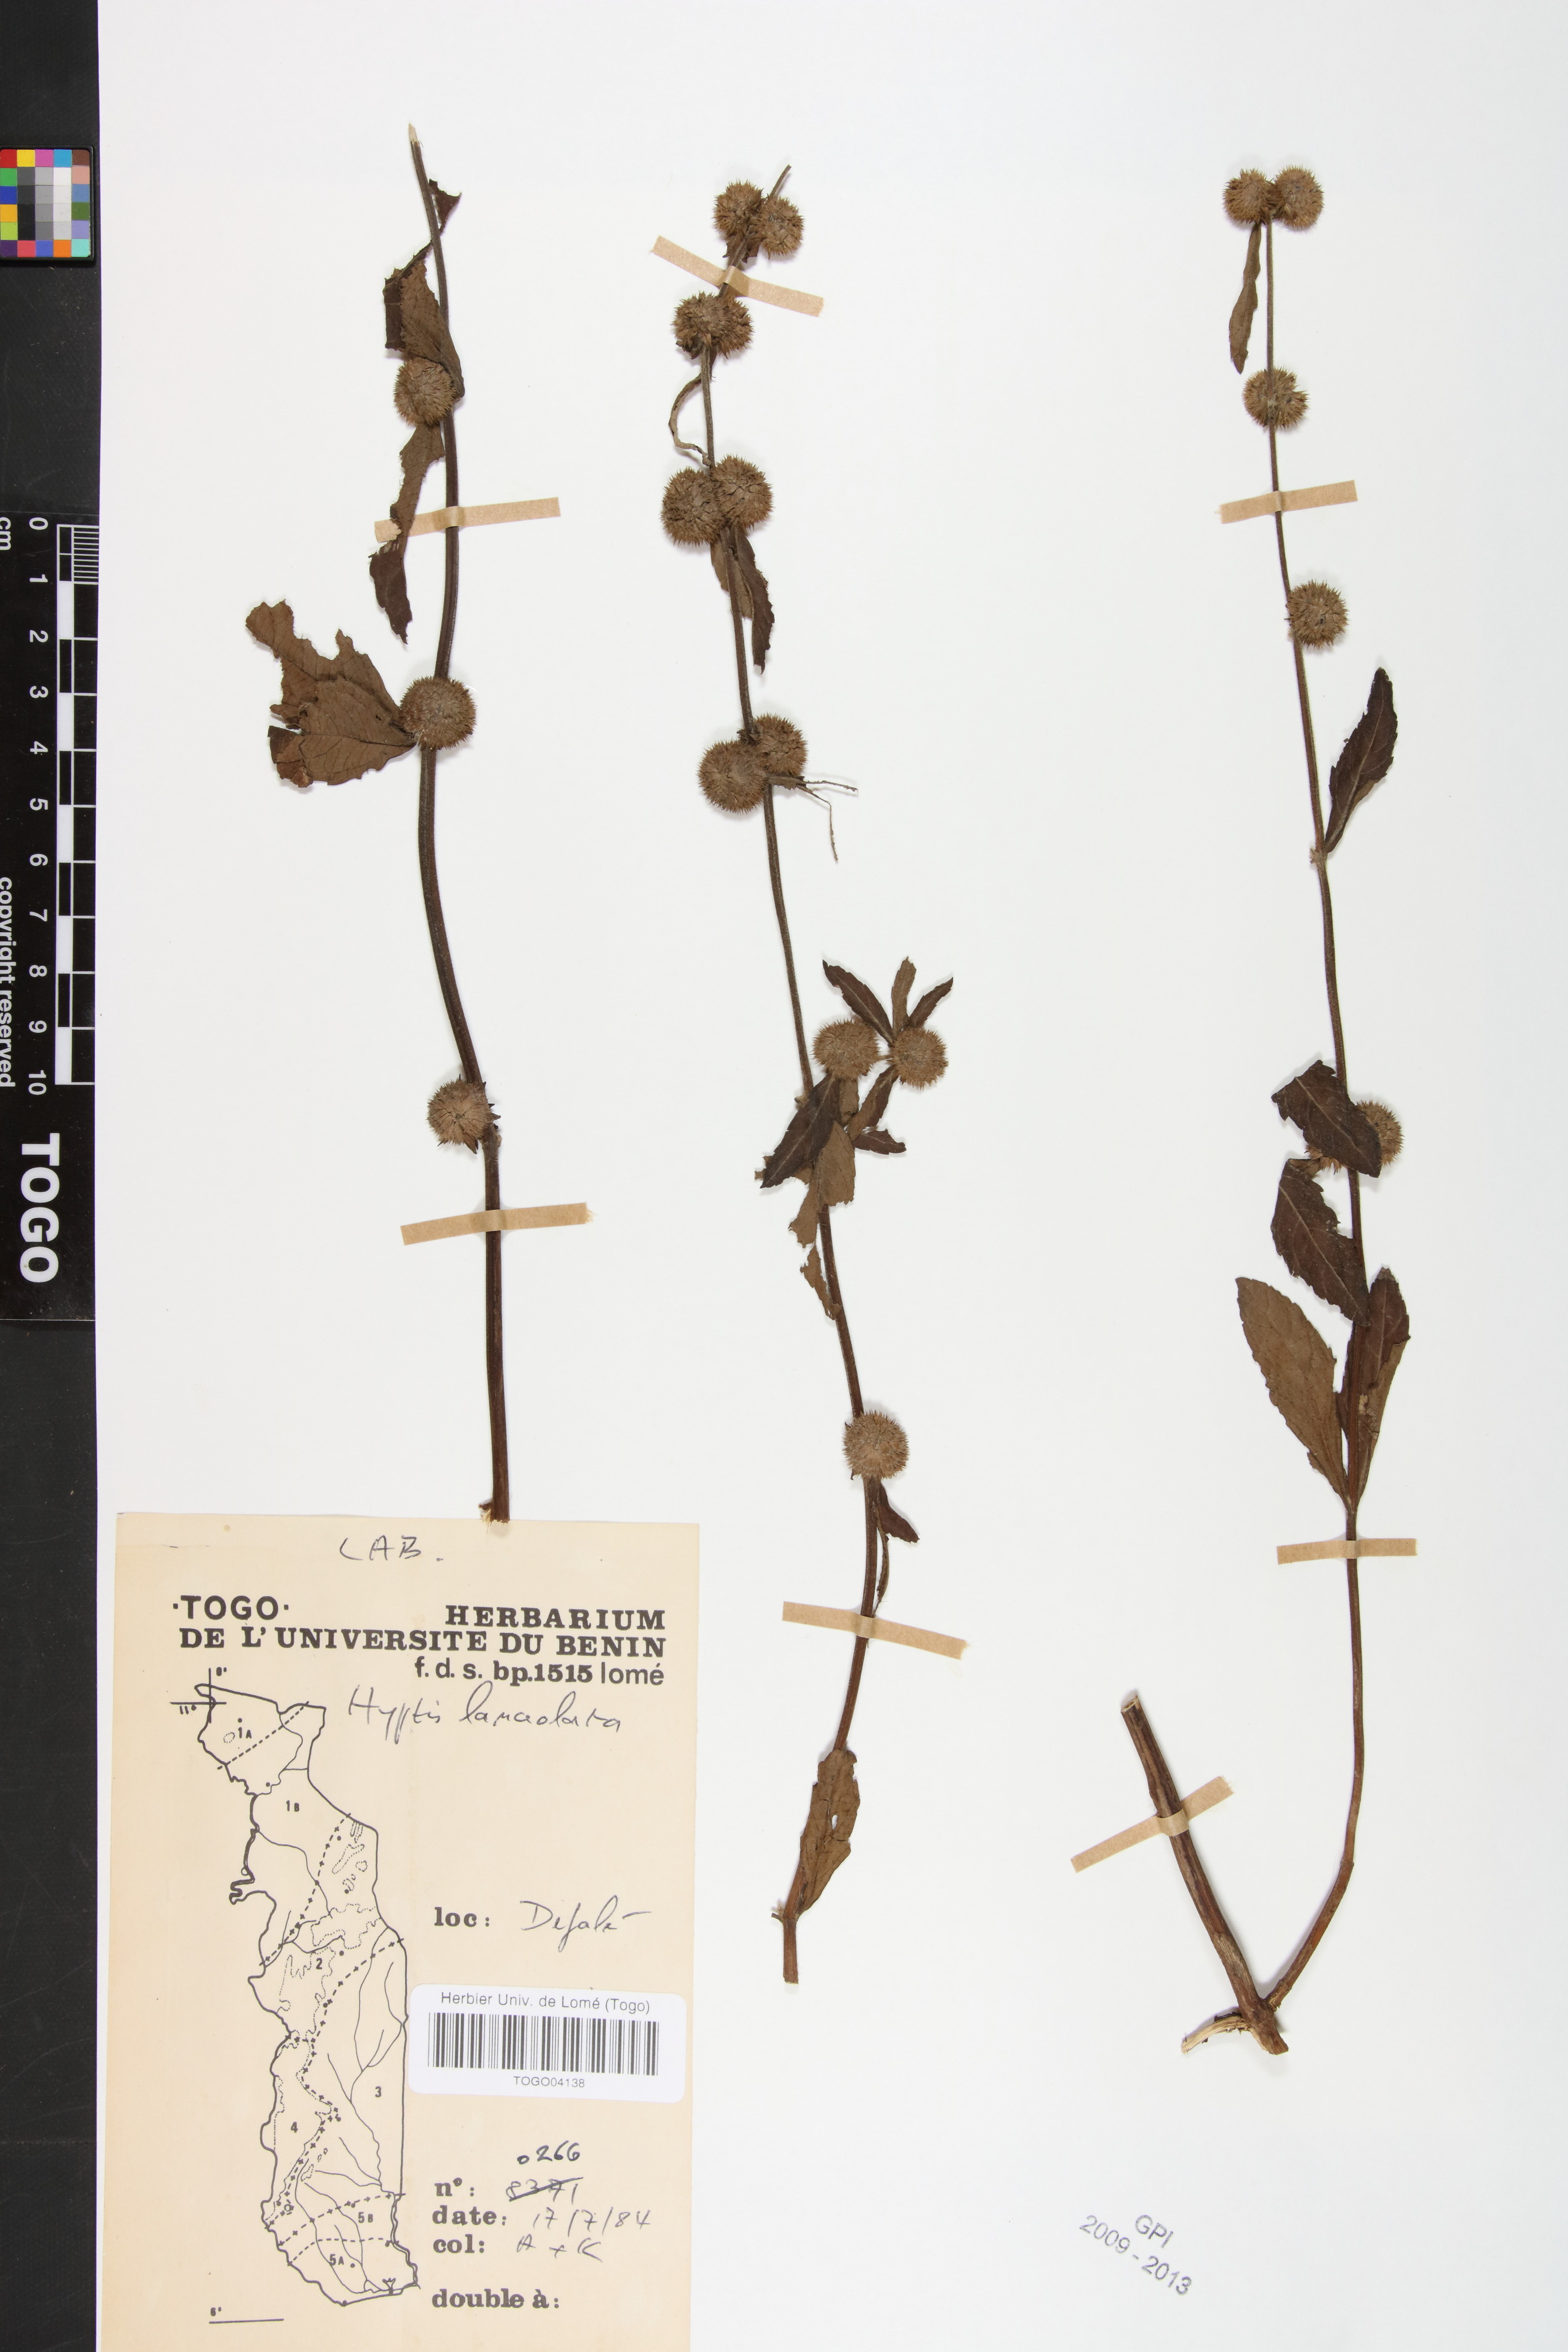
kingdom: Plantae
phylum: Tracheophyta
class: Magnoliopsida
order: Lamiales
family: Lamiaceae
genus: Hyptis
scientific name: Hyptis lanceolata
